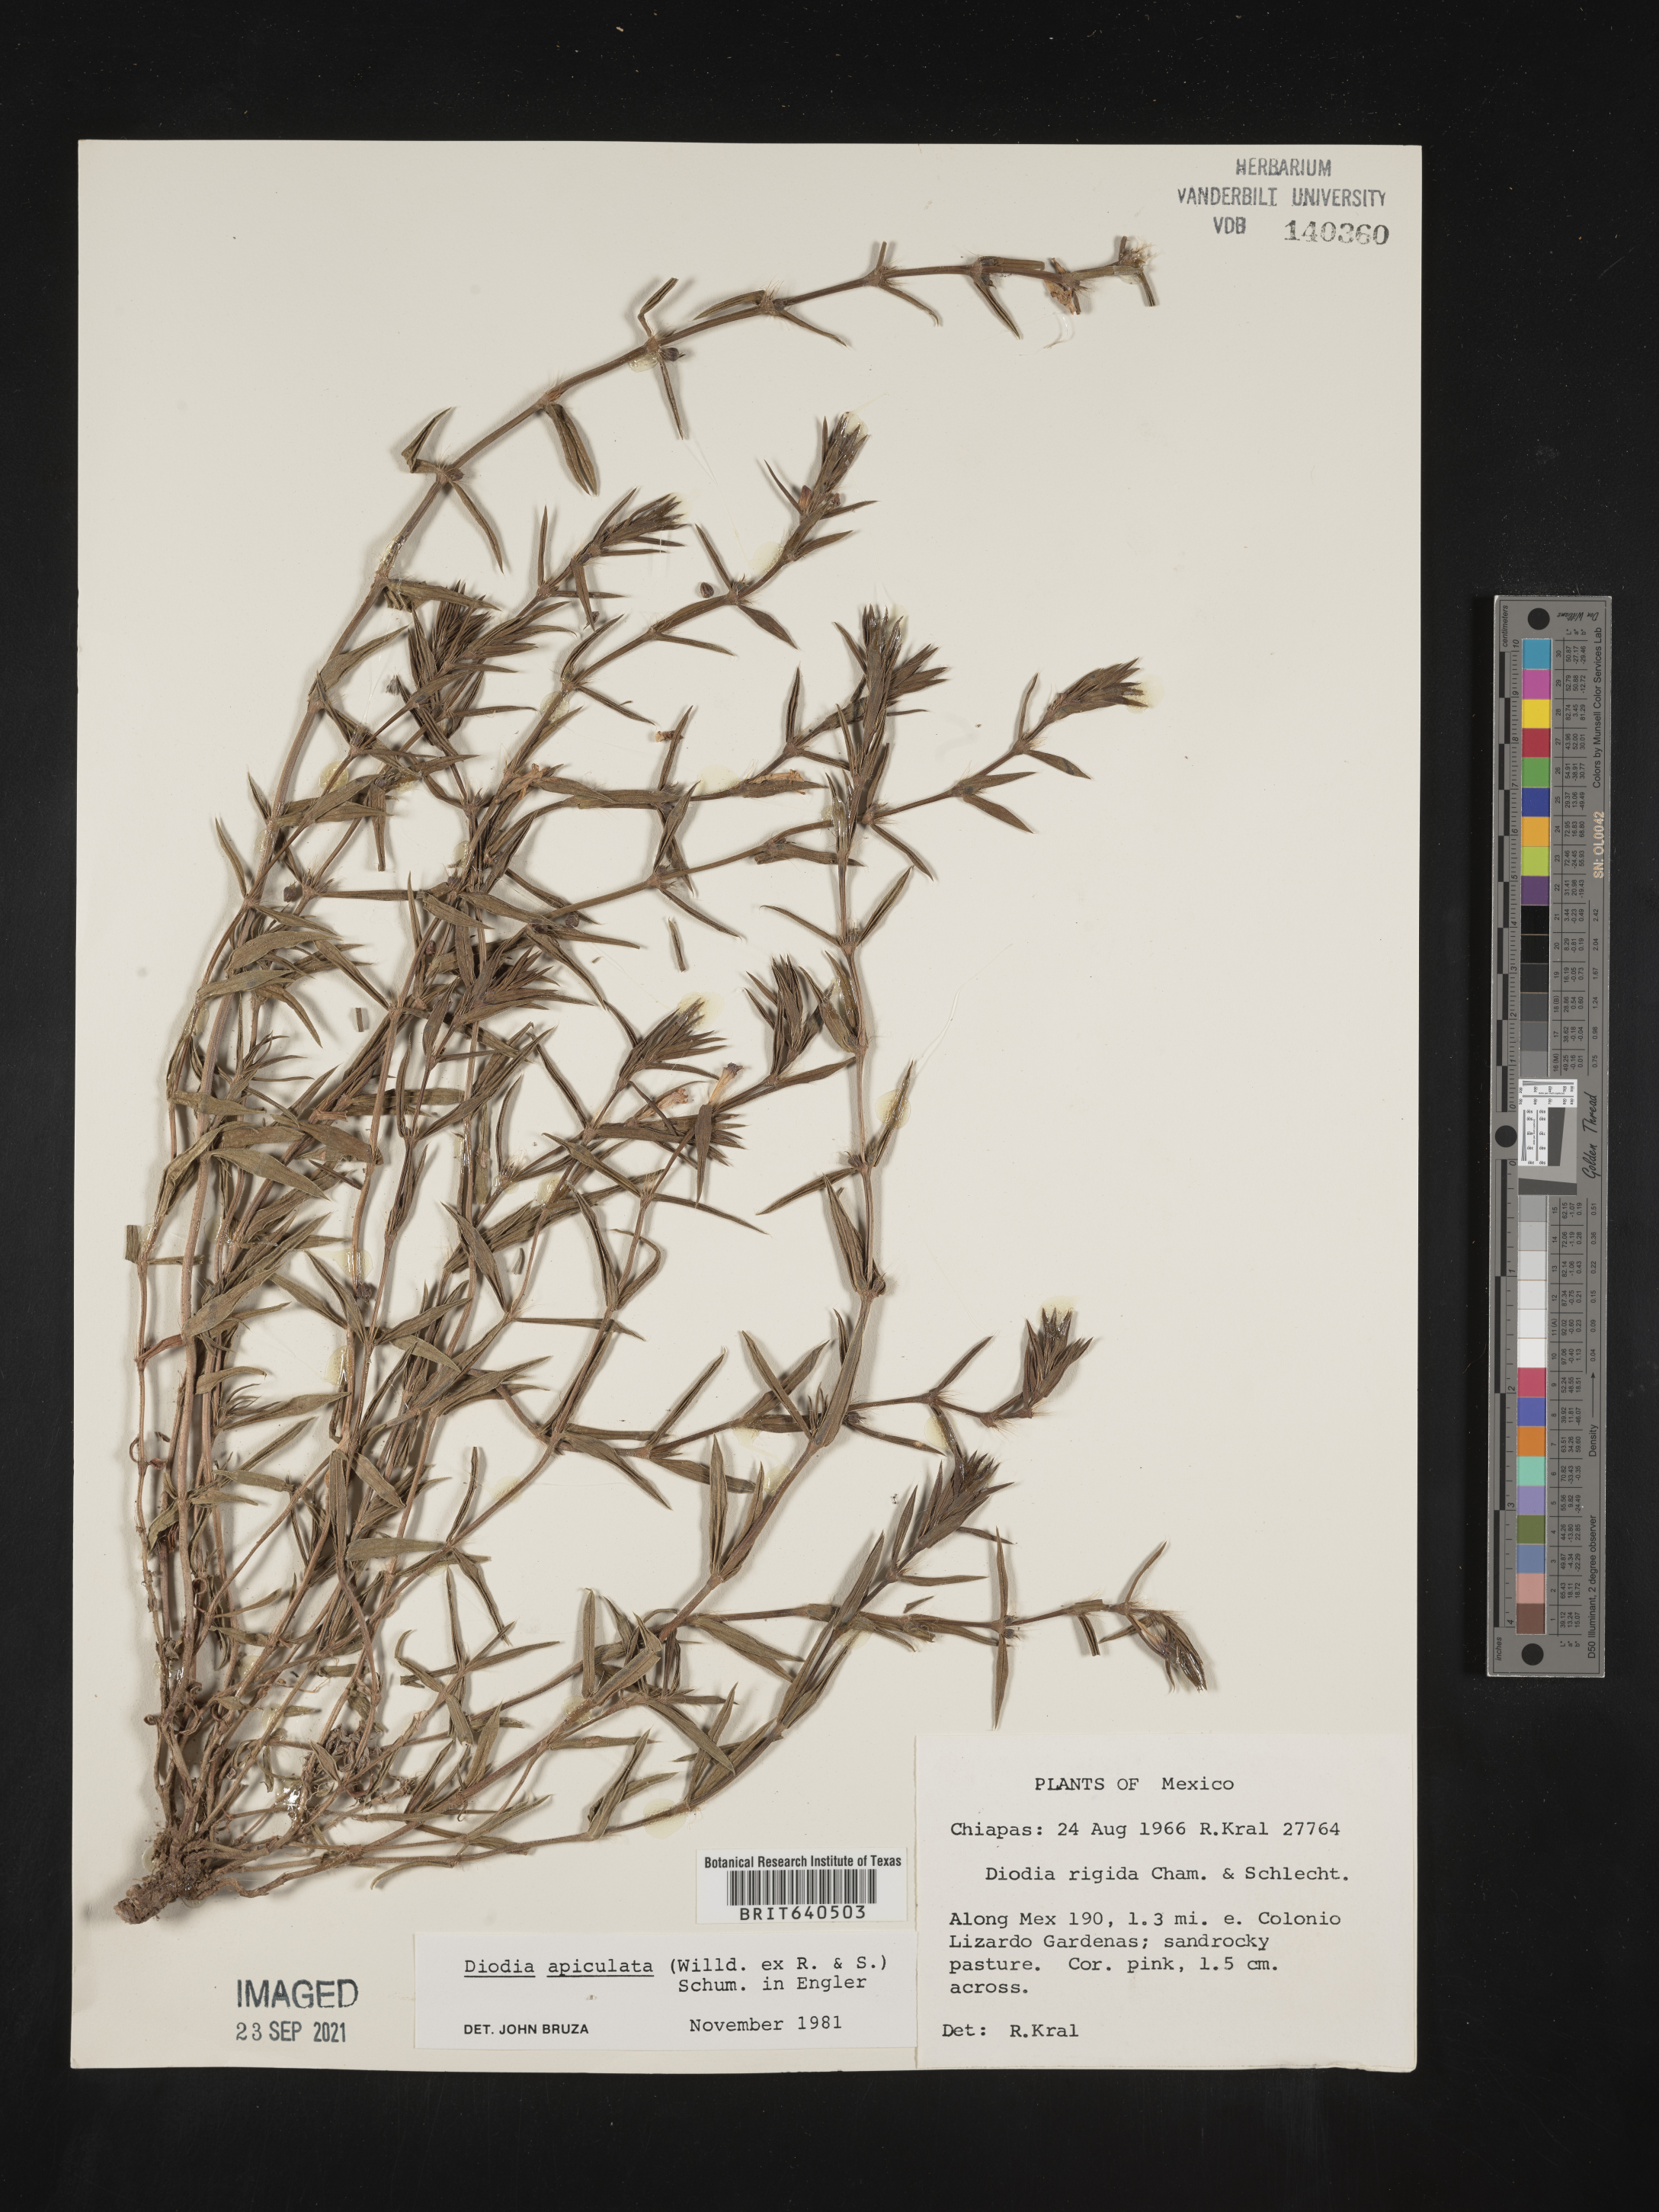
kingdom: Plantae
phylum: Tracheophyta
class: Magnoliopsida
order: Gentianales
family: Rubiaceae
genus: Diodia
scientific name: Diodia
